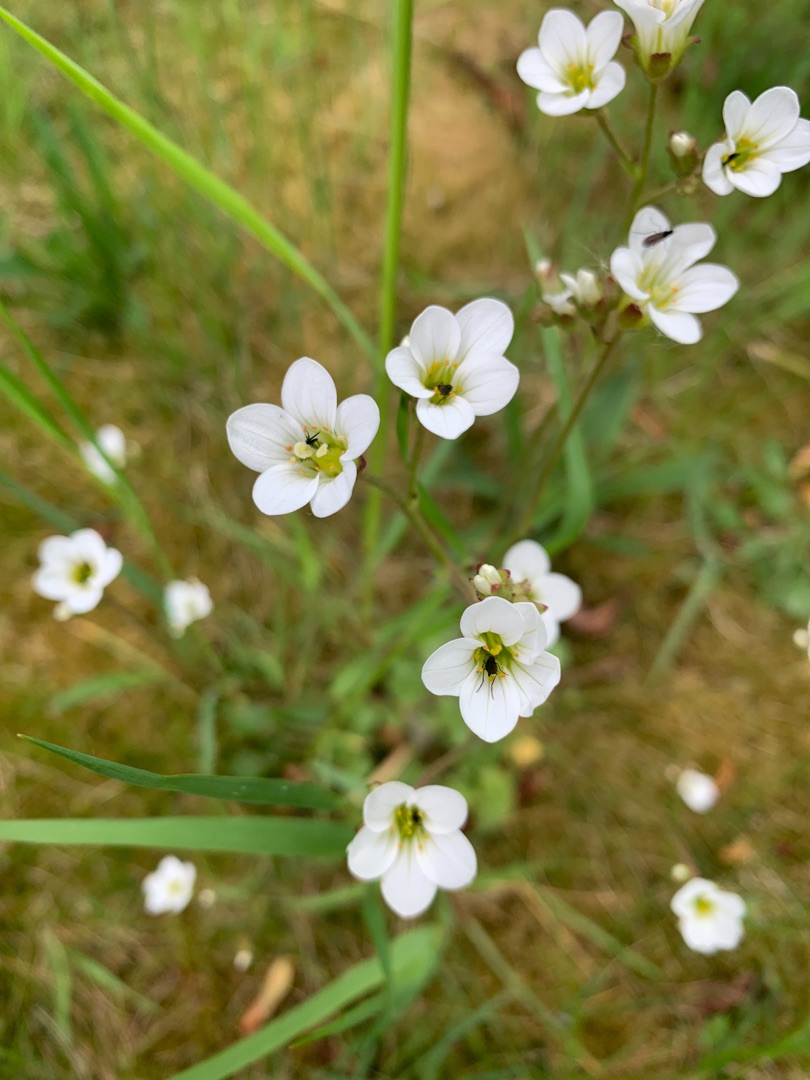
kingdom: Plantae
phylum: Tracheophyta
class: Magnoliopsida
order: Saxifragales
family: Saxifragaceae
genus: Saxifraga
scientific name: Saxifraga granulata
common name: Kornet stenbræk
